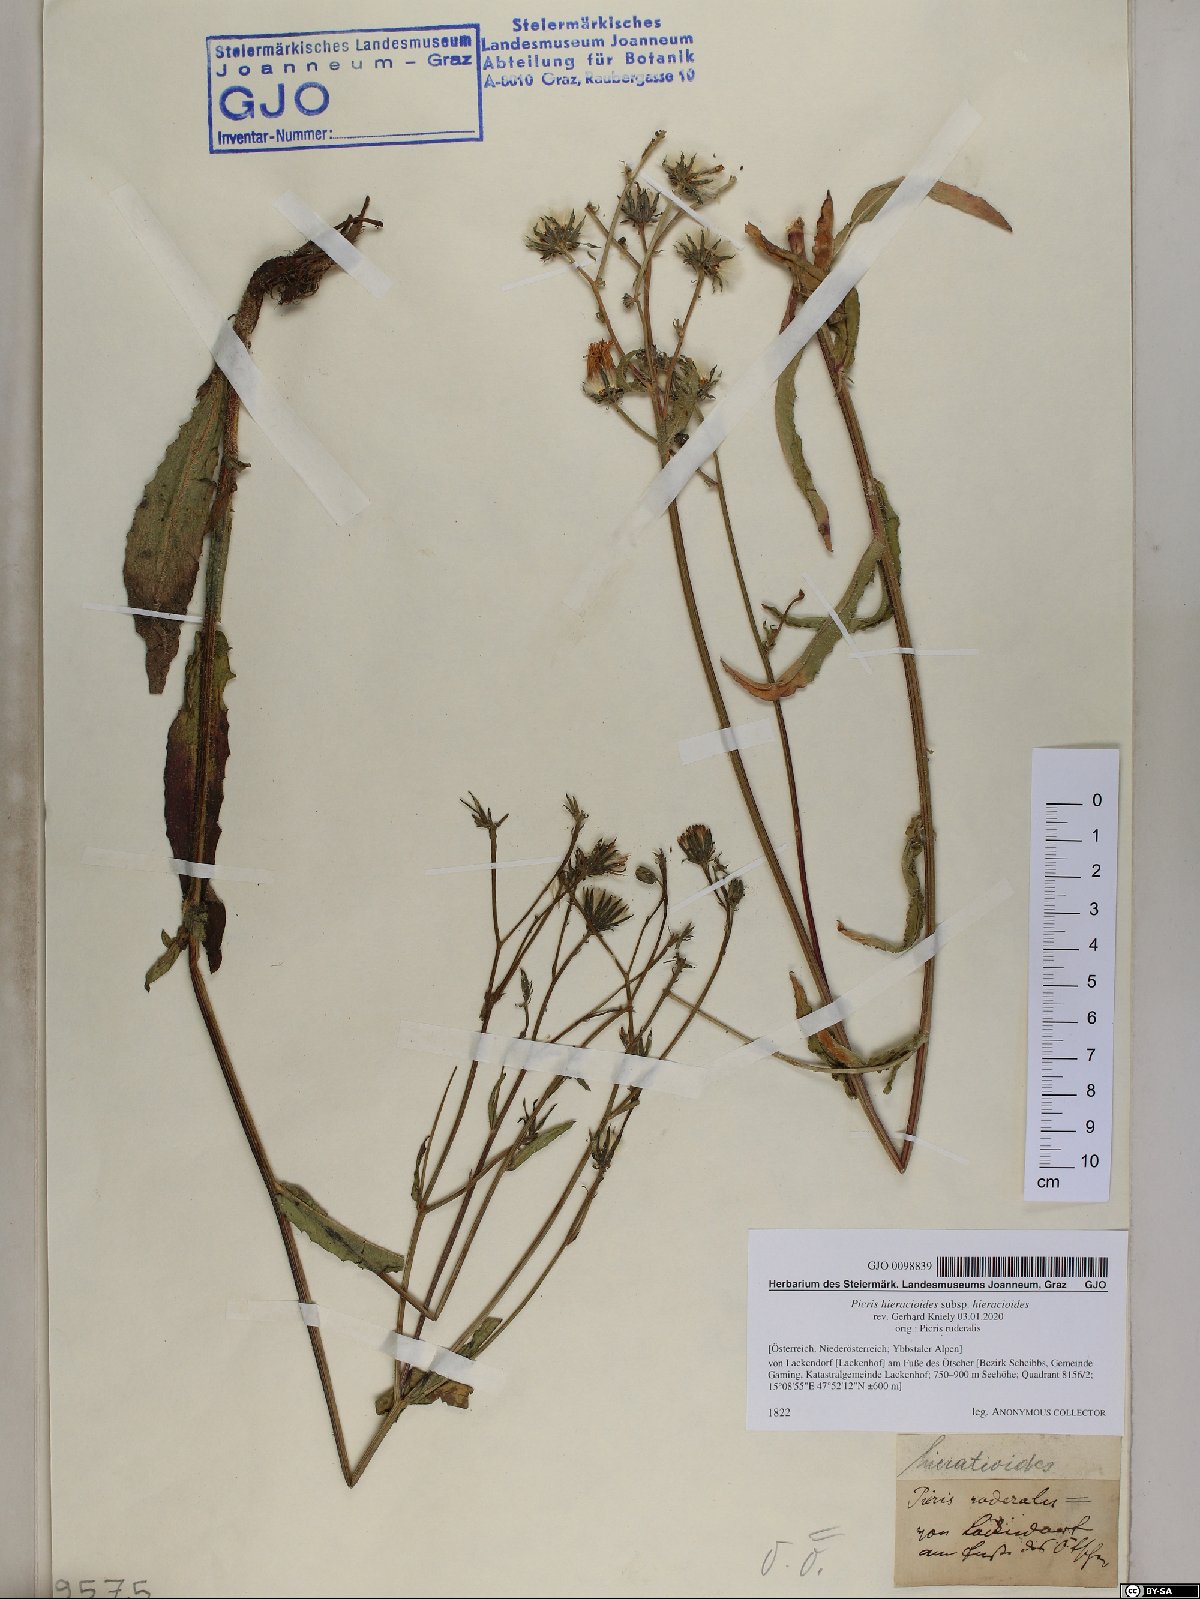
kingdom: Plantae
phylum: Tracheophyta
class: Magnoliopsida
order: Asterales
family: Asteraceae
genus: Picris
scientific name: Picris hieracioides
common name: Hawkweed oxtongue
